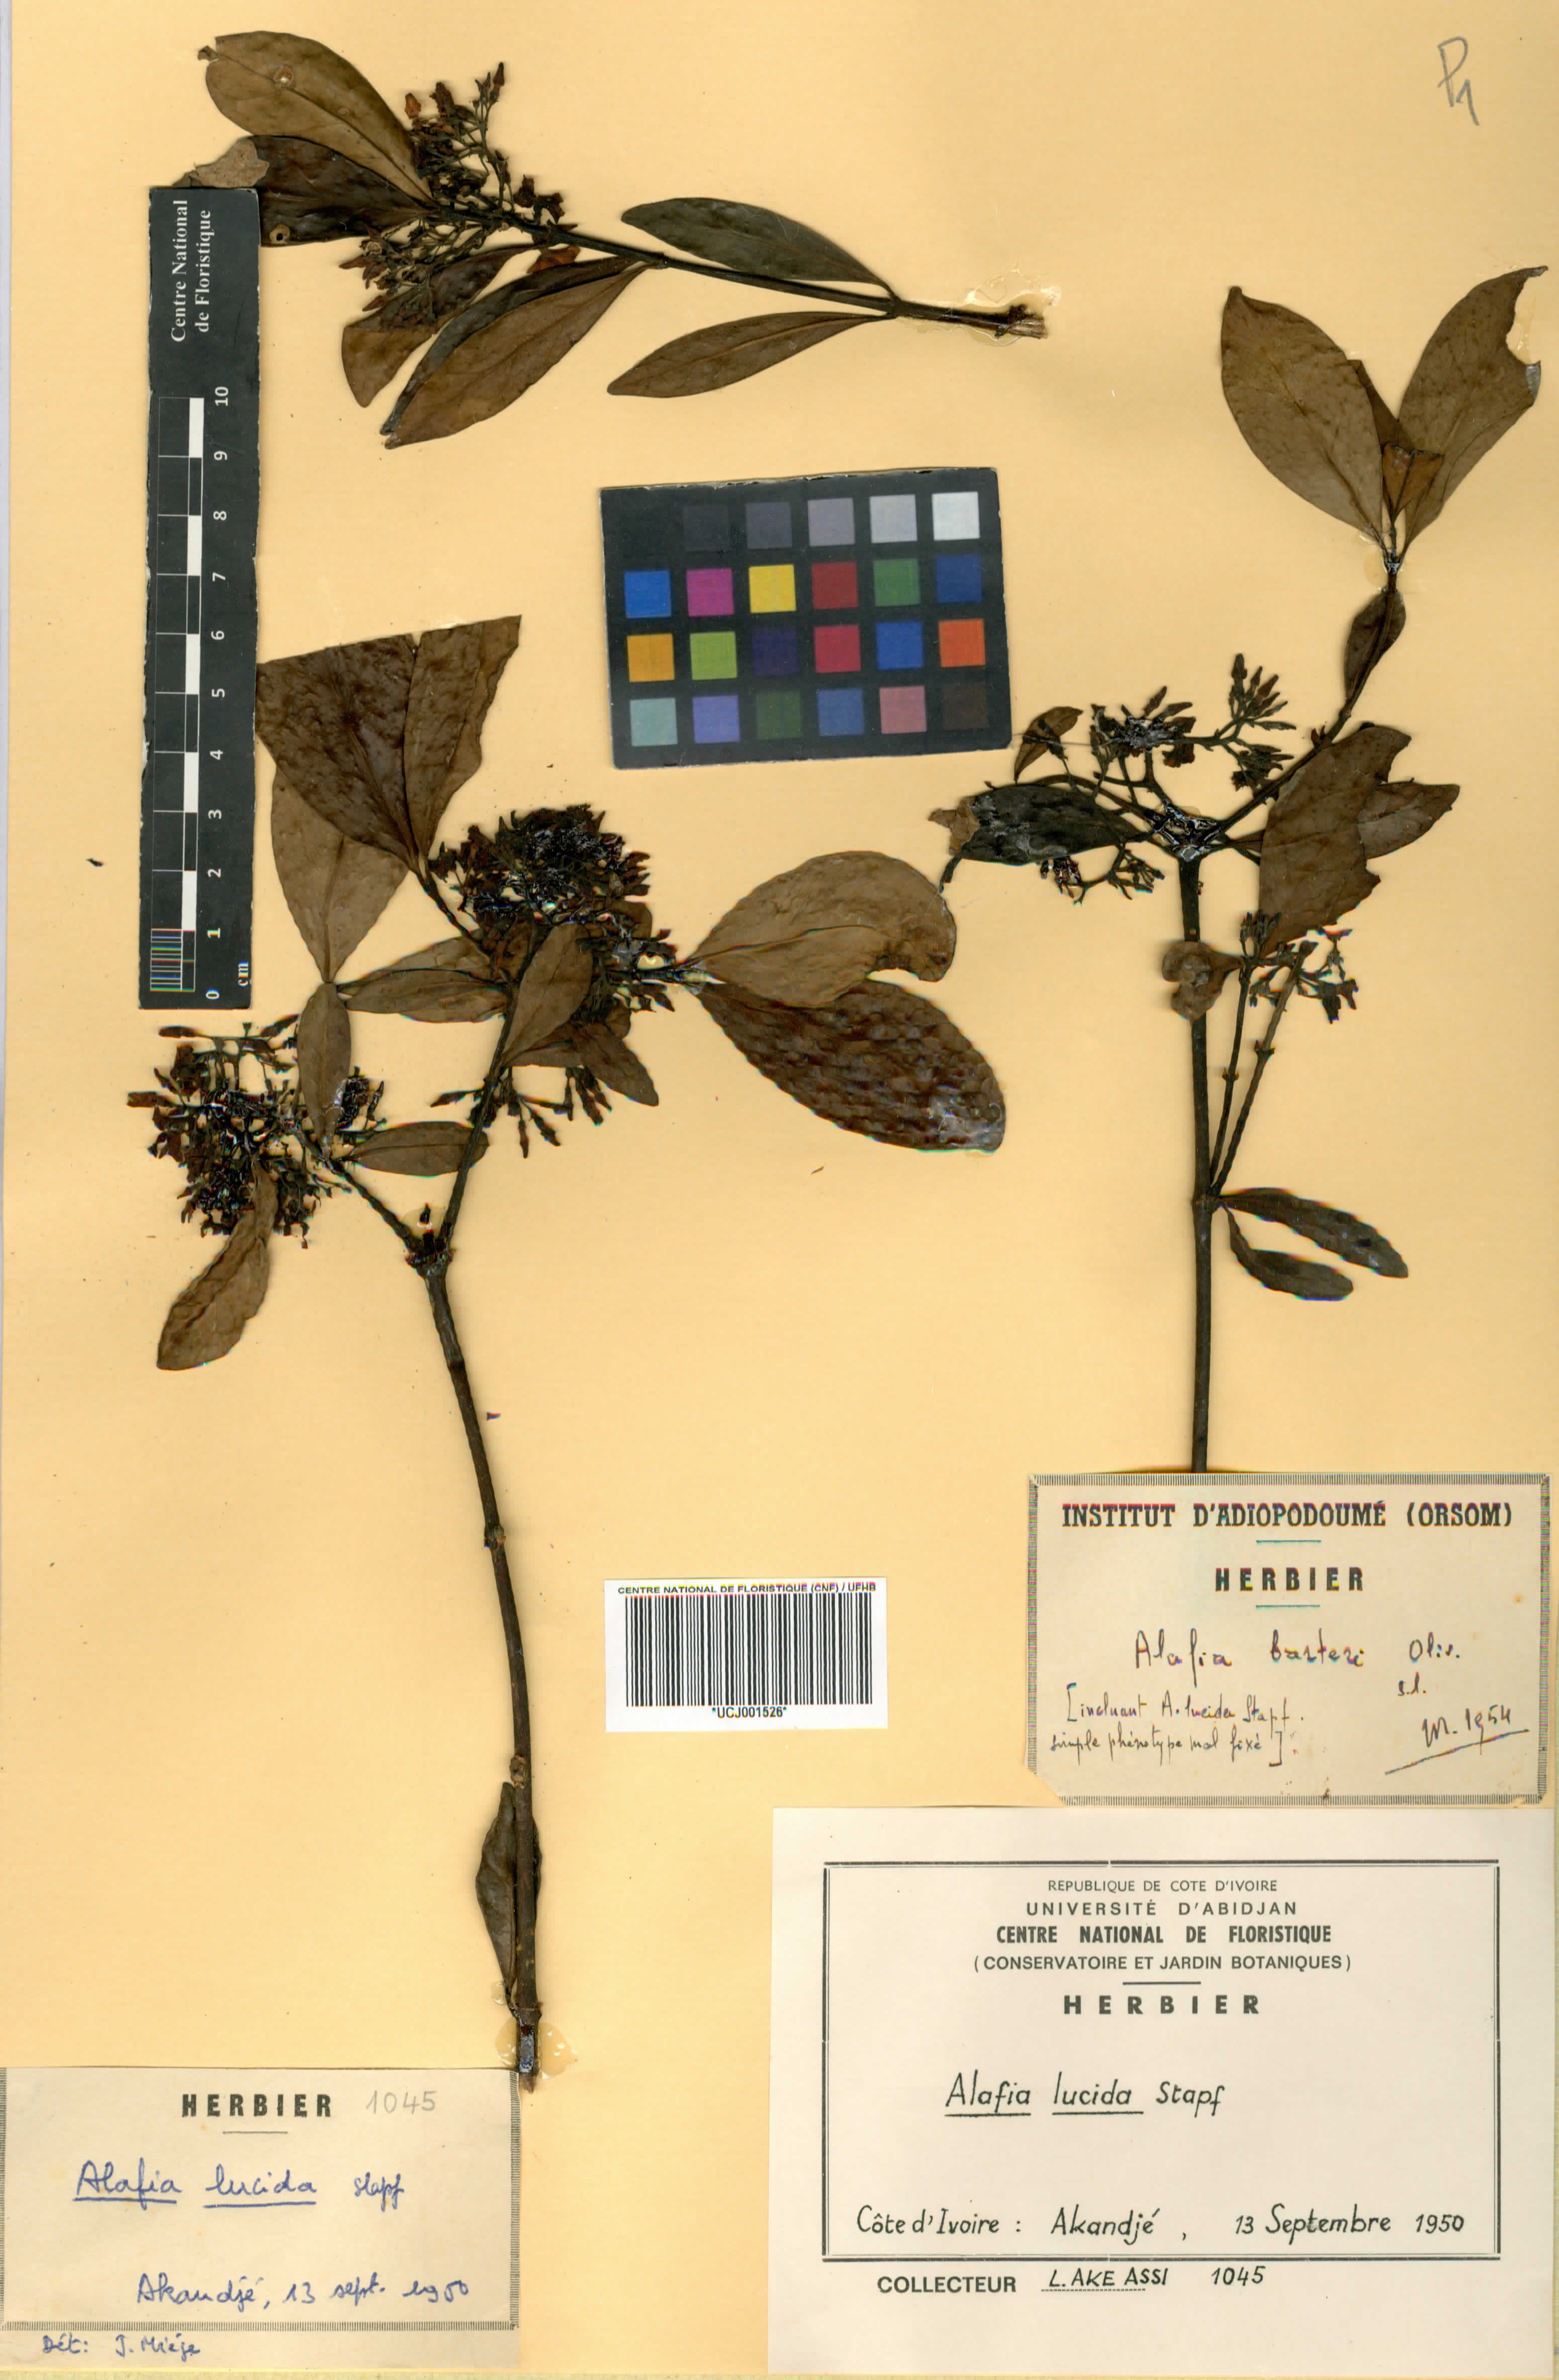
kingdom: Plantae
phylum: Tracheophyta
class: Magnoliopsida
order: Gentianales
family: Apocynaceae
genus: Alafia
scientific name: Alafia lucida
